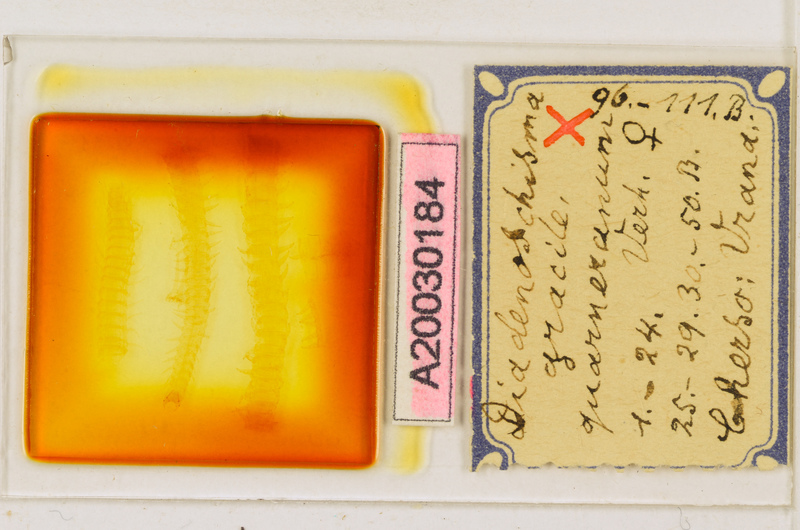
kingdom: Animalia
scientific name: Animalia
